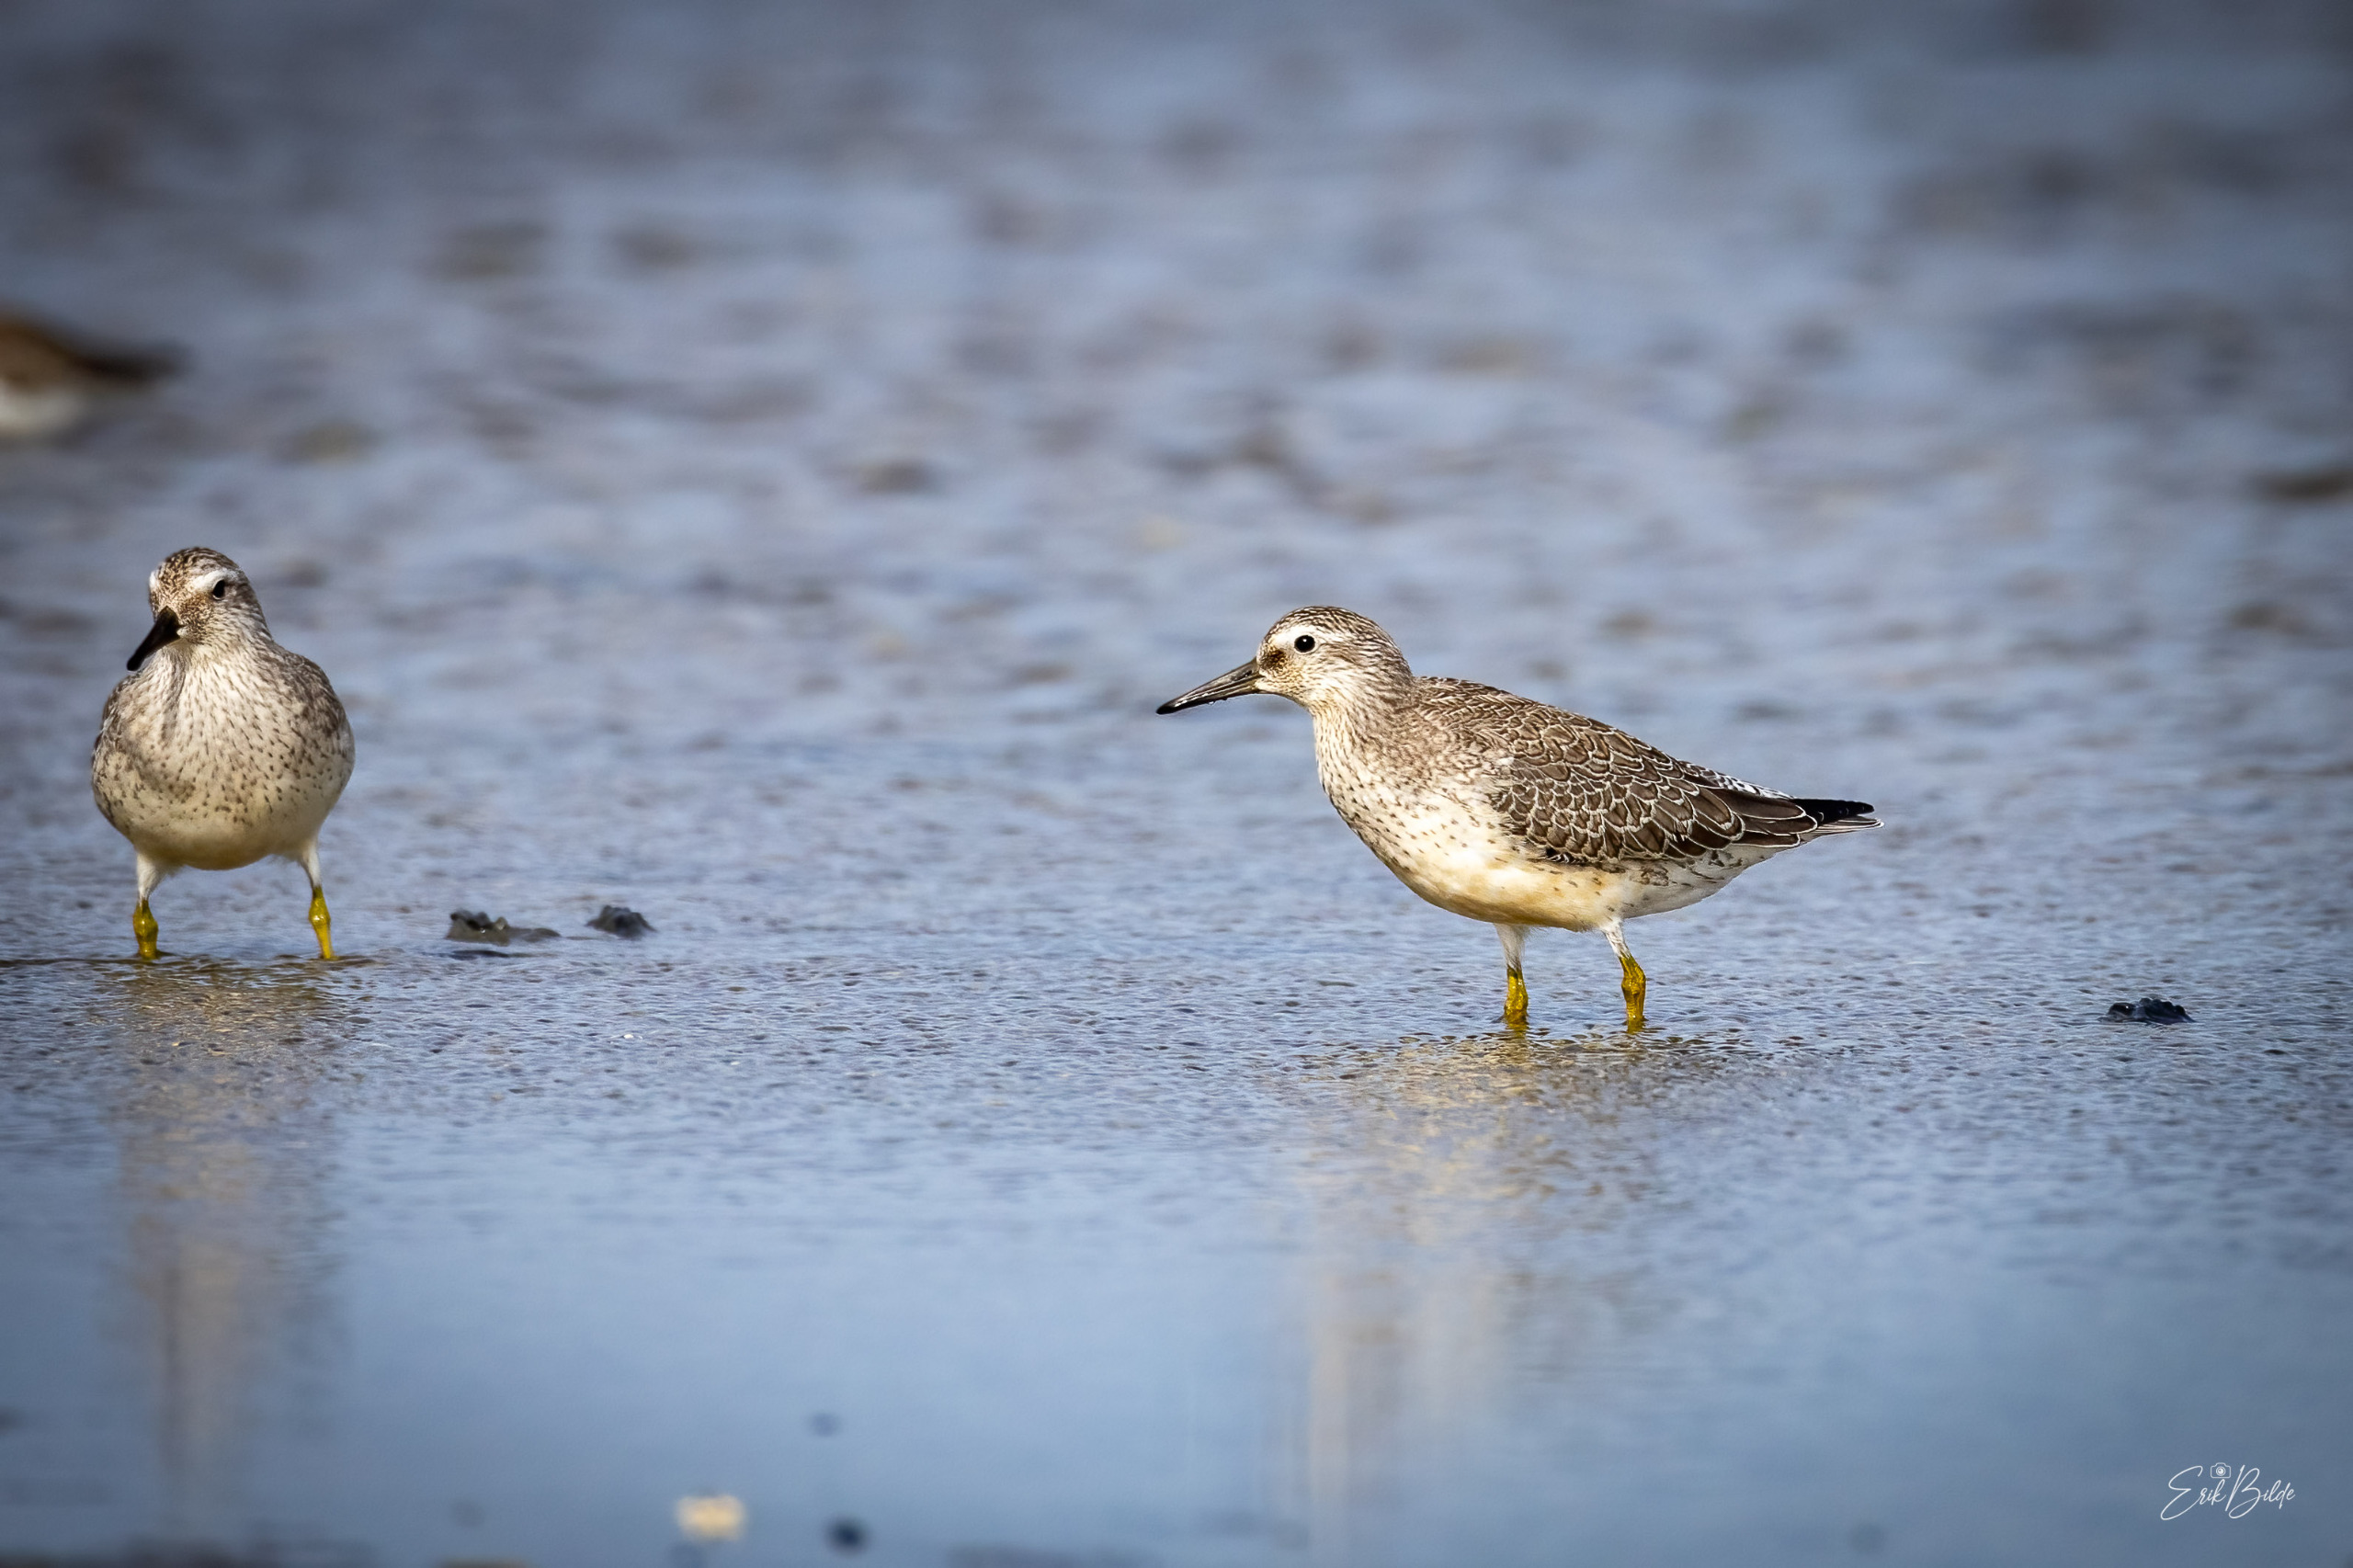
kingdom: Animalia
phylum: Chordata
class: Aves
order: Charadriiformes
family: Scolopacidae
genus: Calidris
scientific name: Calidris canutus
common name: Islandsk ryle
